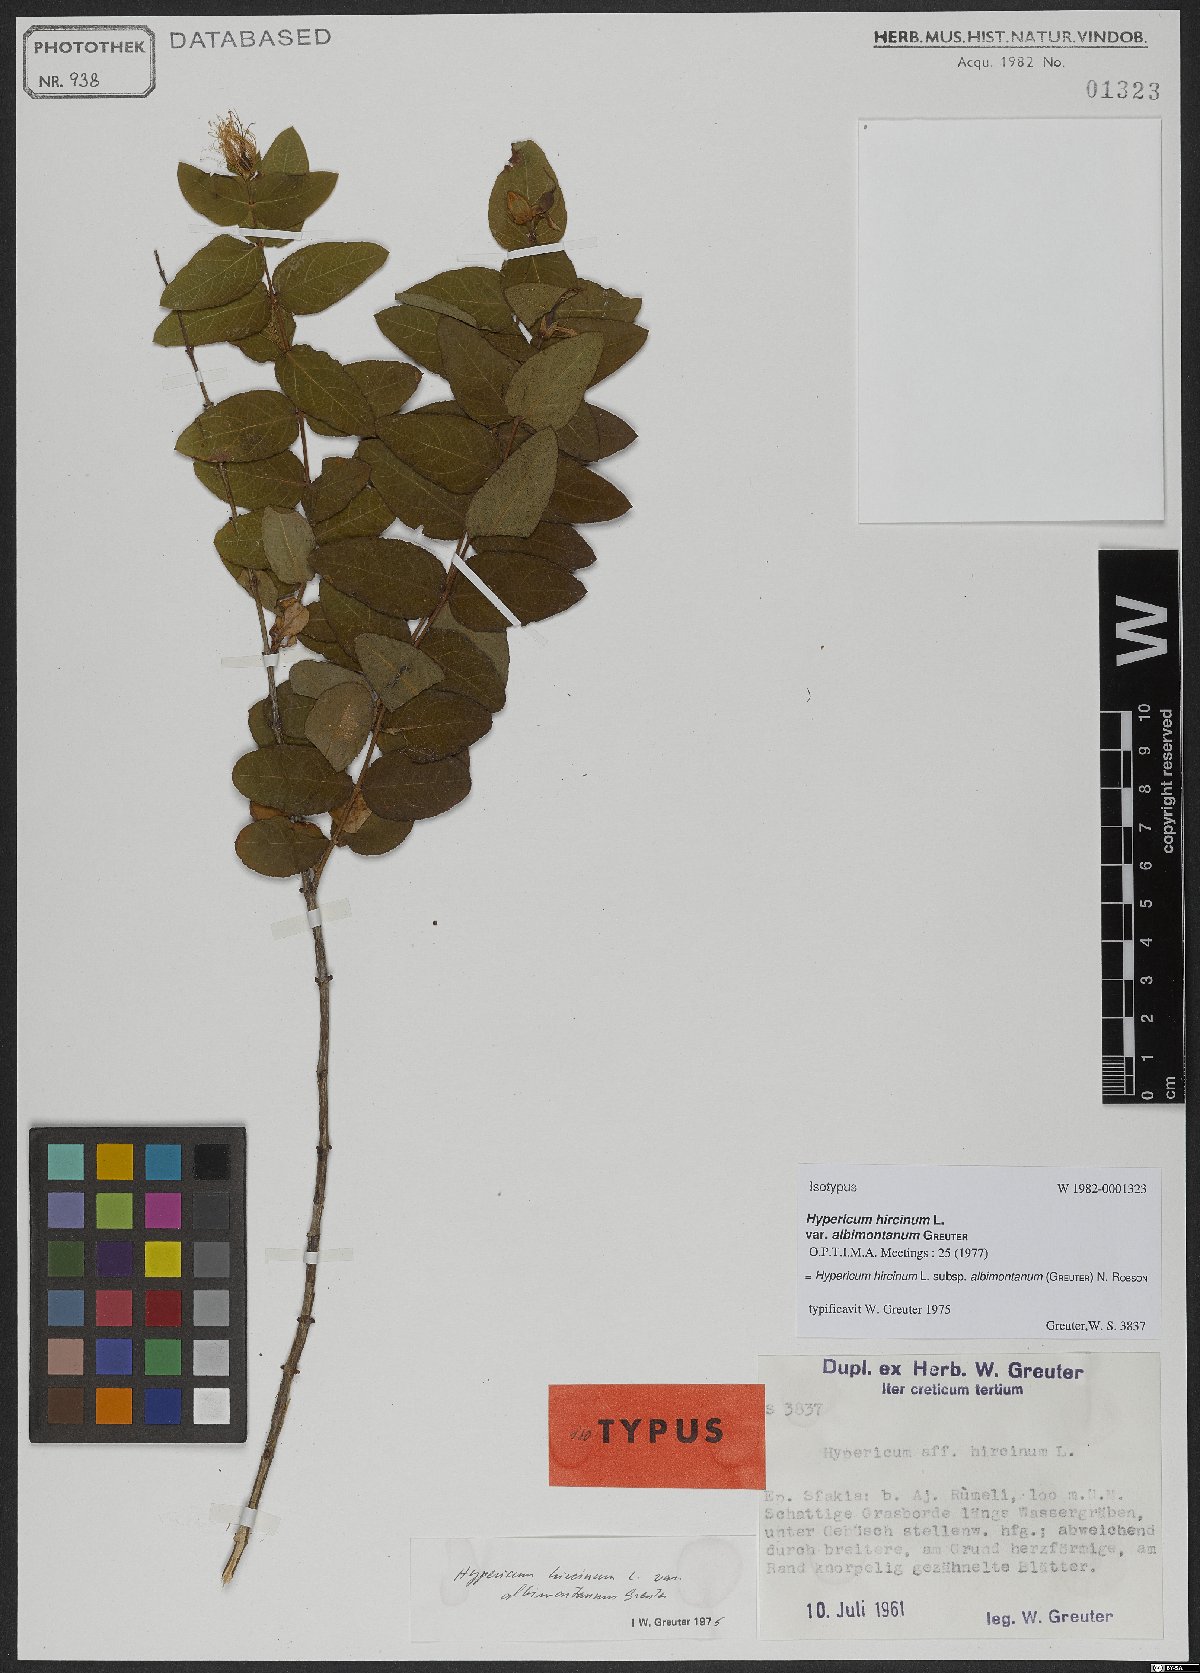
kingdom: Plantae
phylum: Tracheophyta
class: Magnoliopsida
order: Malpighiales
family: Hypericaceae
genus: Hypericum
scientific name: Hypericum hircinum
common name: Stinking tutsan
